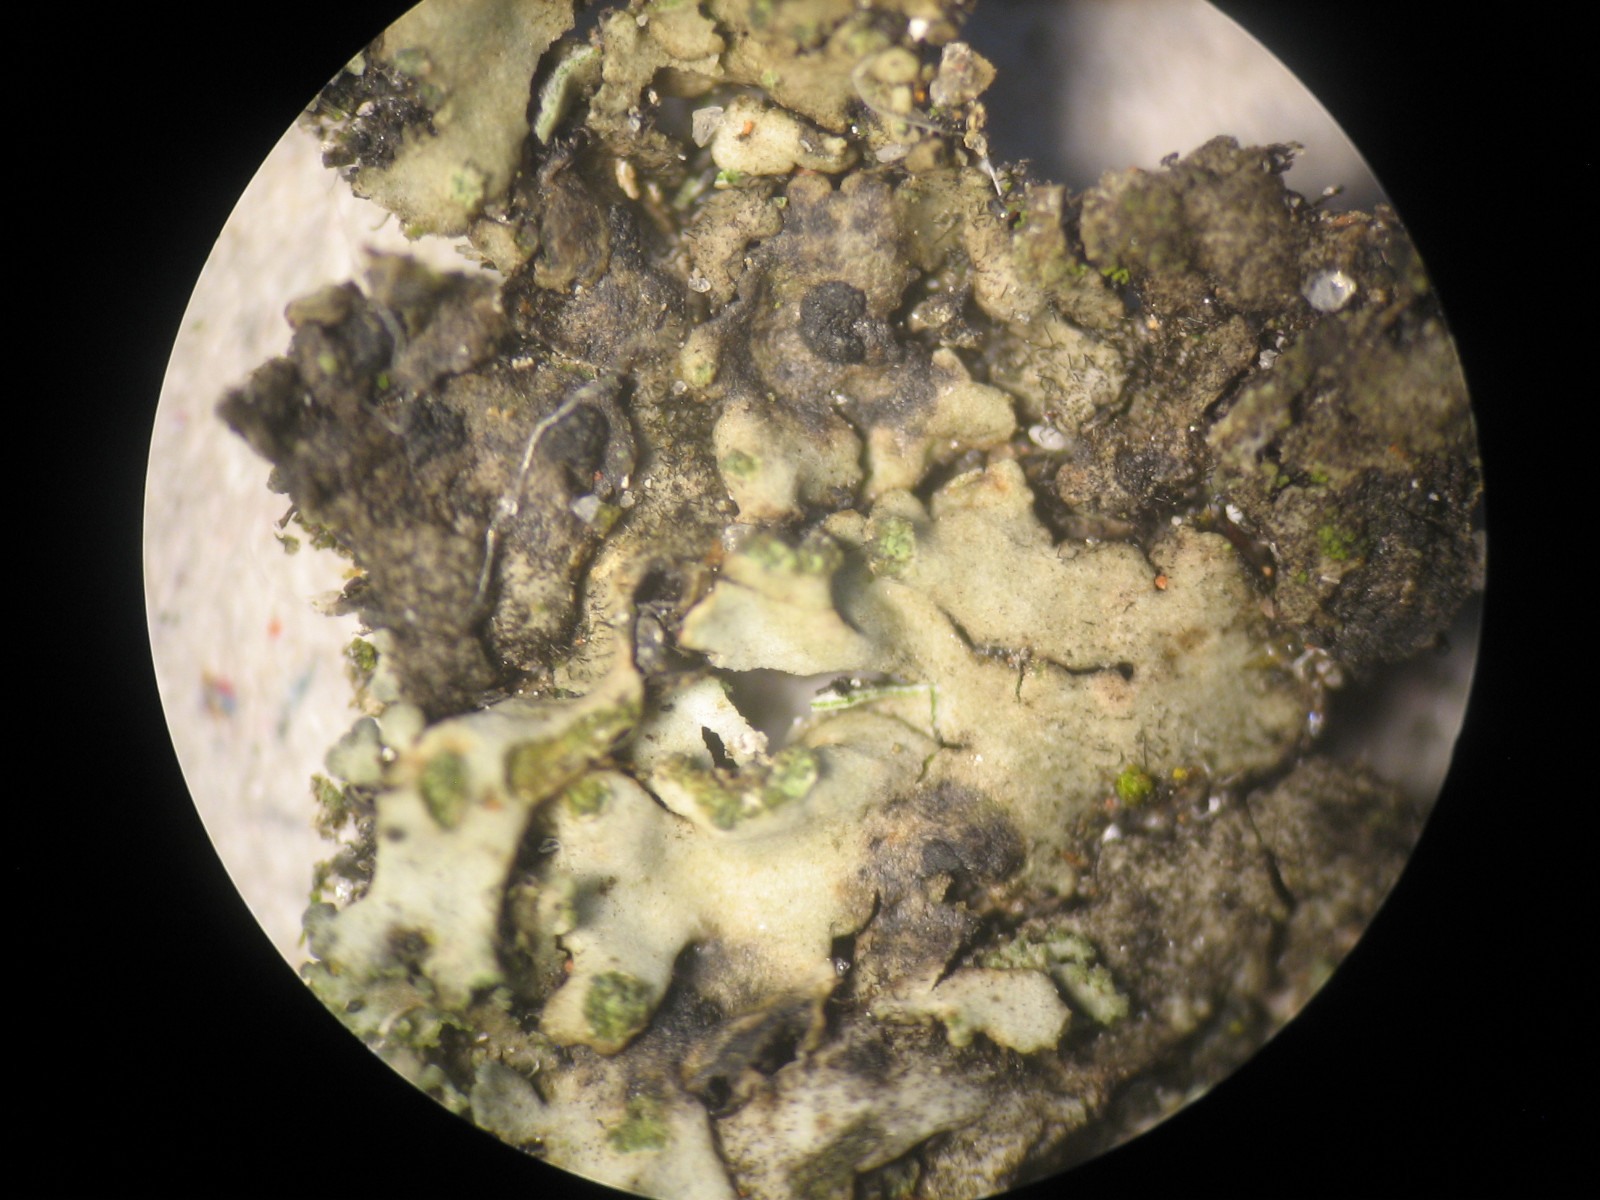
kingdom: Fungi
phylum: Ascomycota
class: Dothideomycetes
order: Mytilinidiales
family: Mytilinidiaceae
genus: Taeniolella
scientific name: Taeniolella phaeophysciae
